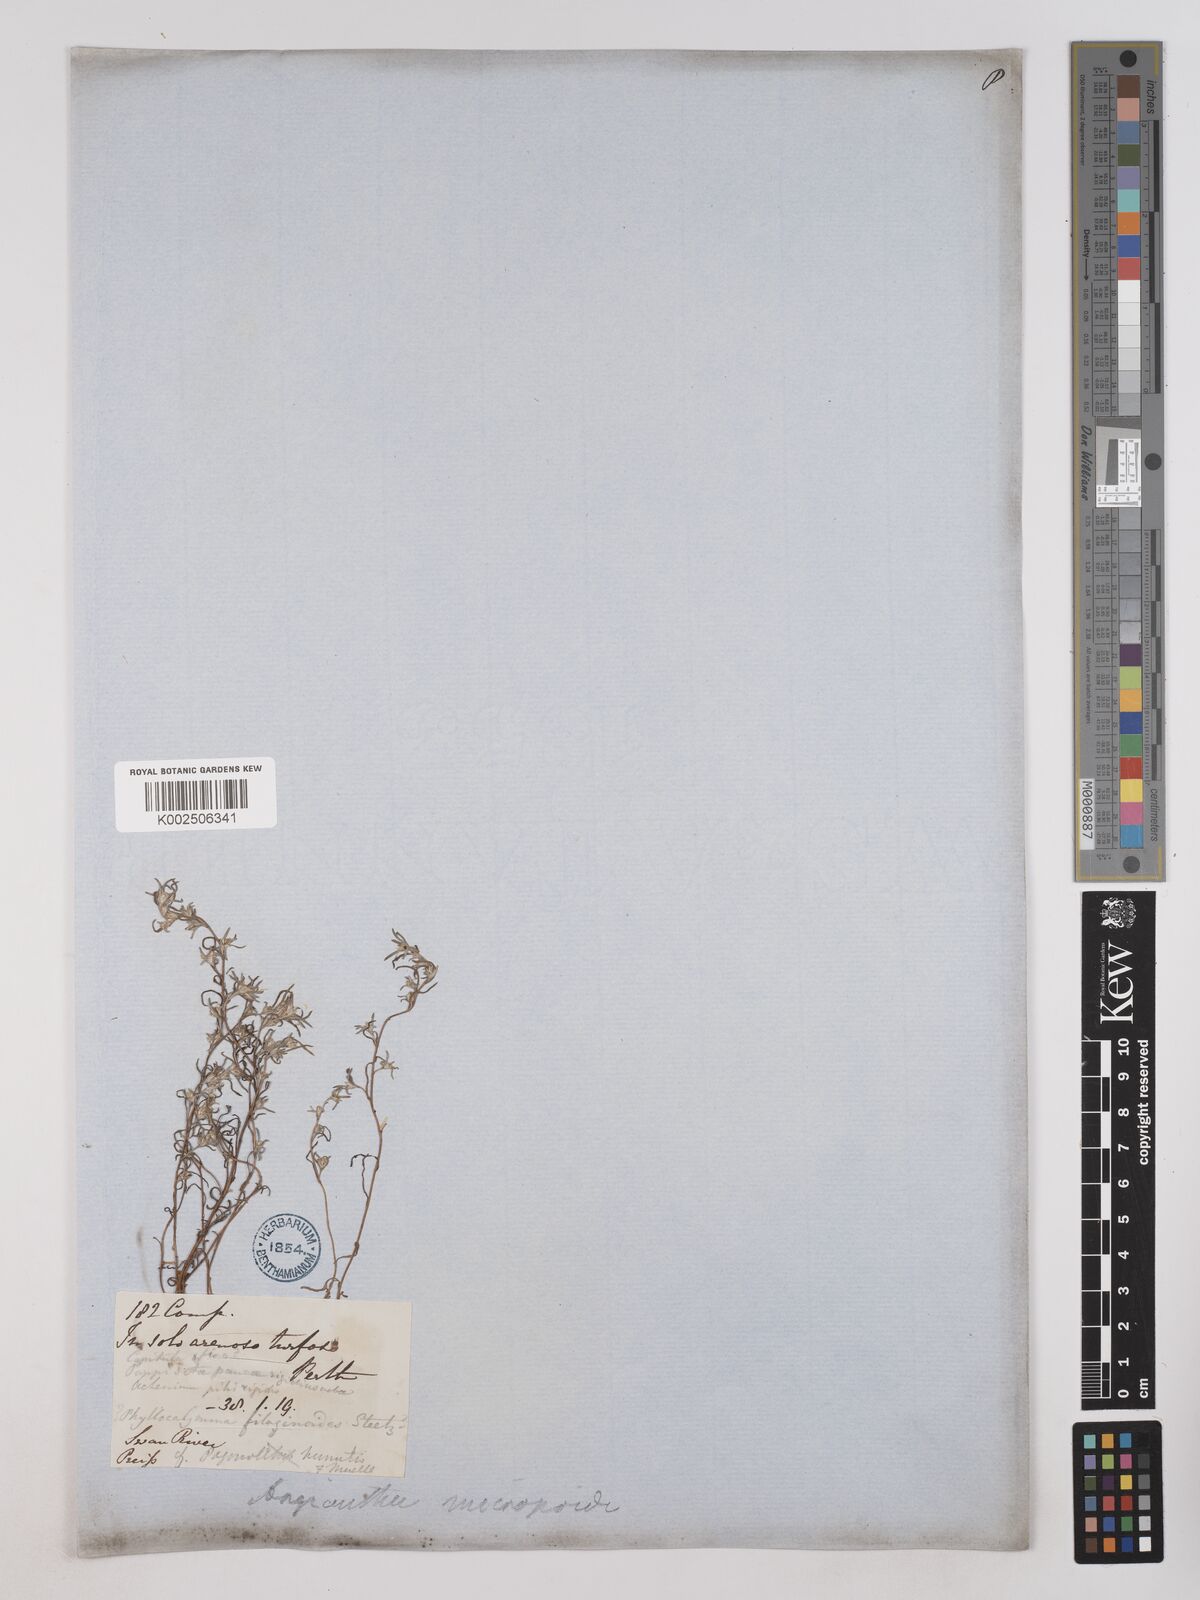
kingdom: Plantae
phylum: Tracheophyta
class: Magnoliopsida
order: Asterales
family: Asteraceae
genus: Angianthus
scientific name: Angianthus micropodioides
